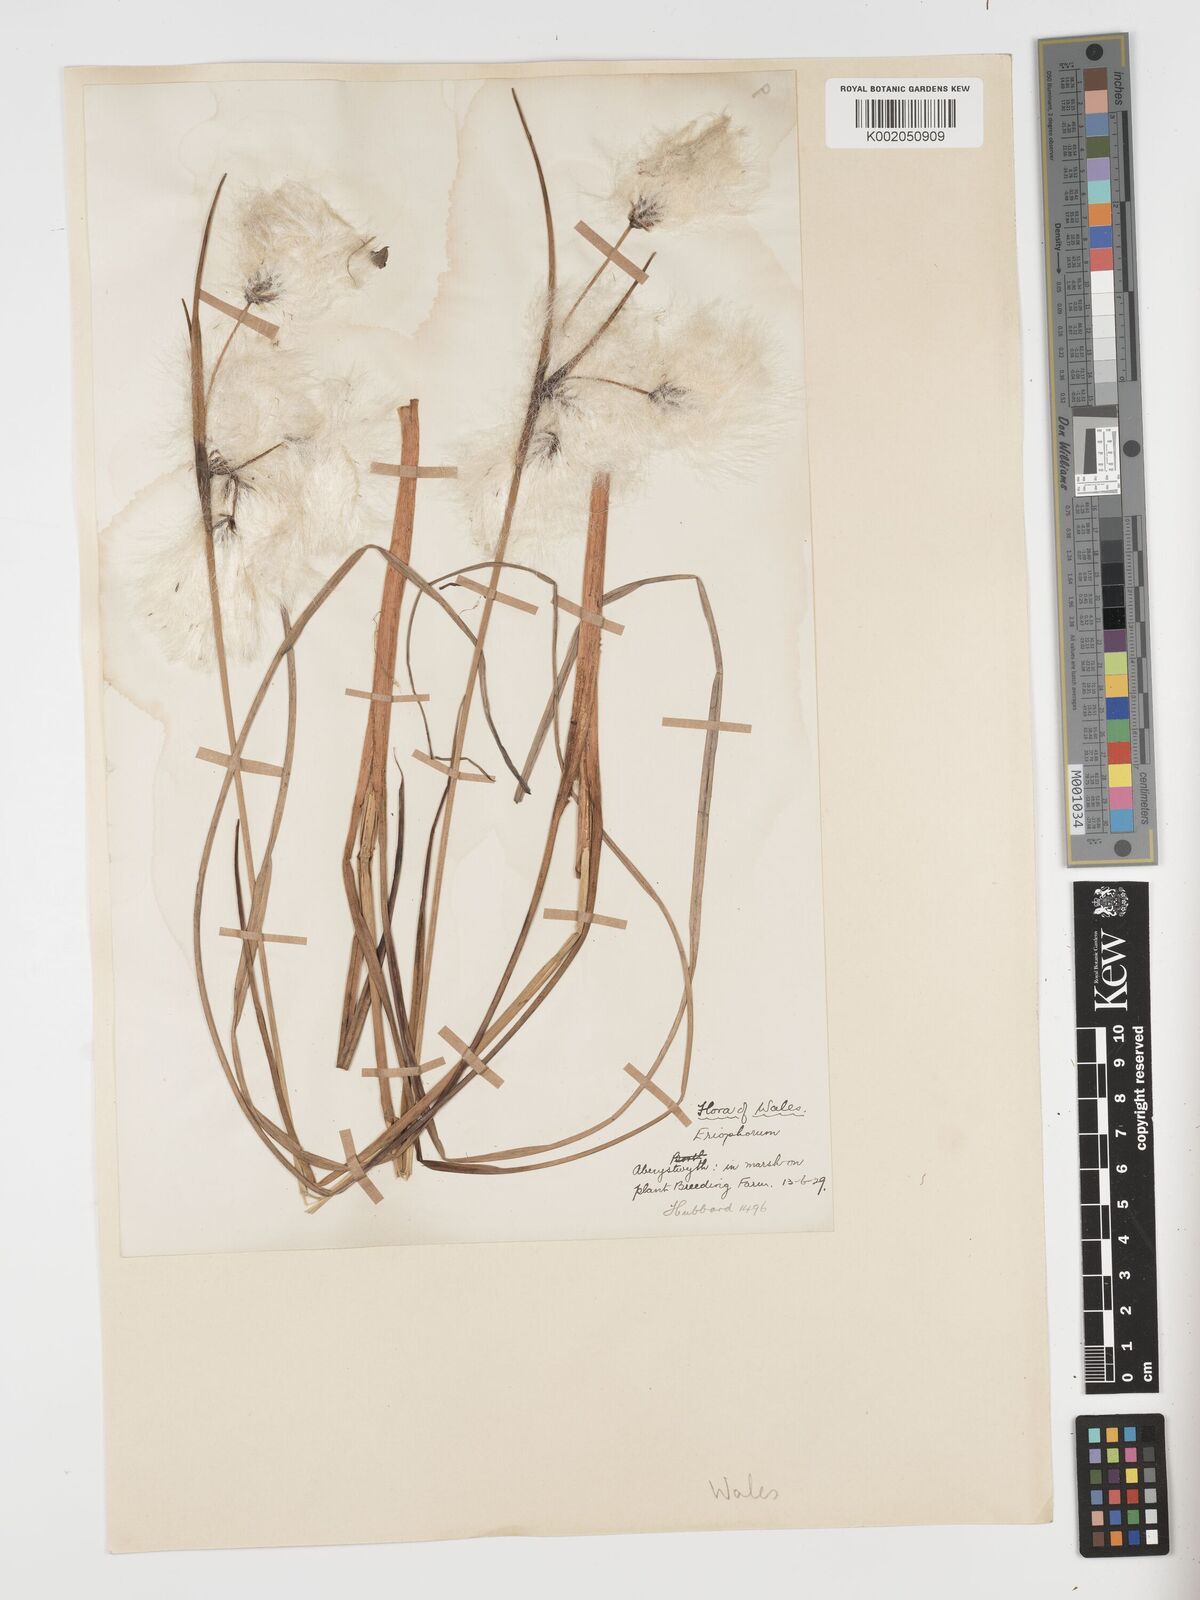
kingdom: Plantae
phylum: Tracheophyta
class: Liliopsida
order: Poales
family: Cyperaceae
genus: Eriophorum
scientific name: Eriophorum angustifolium
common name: Common cottongrass
